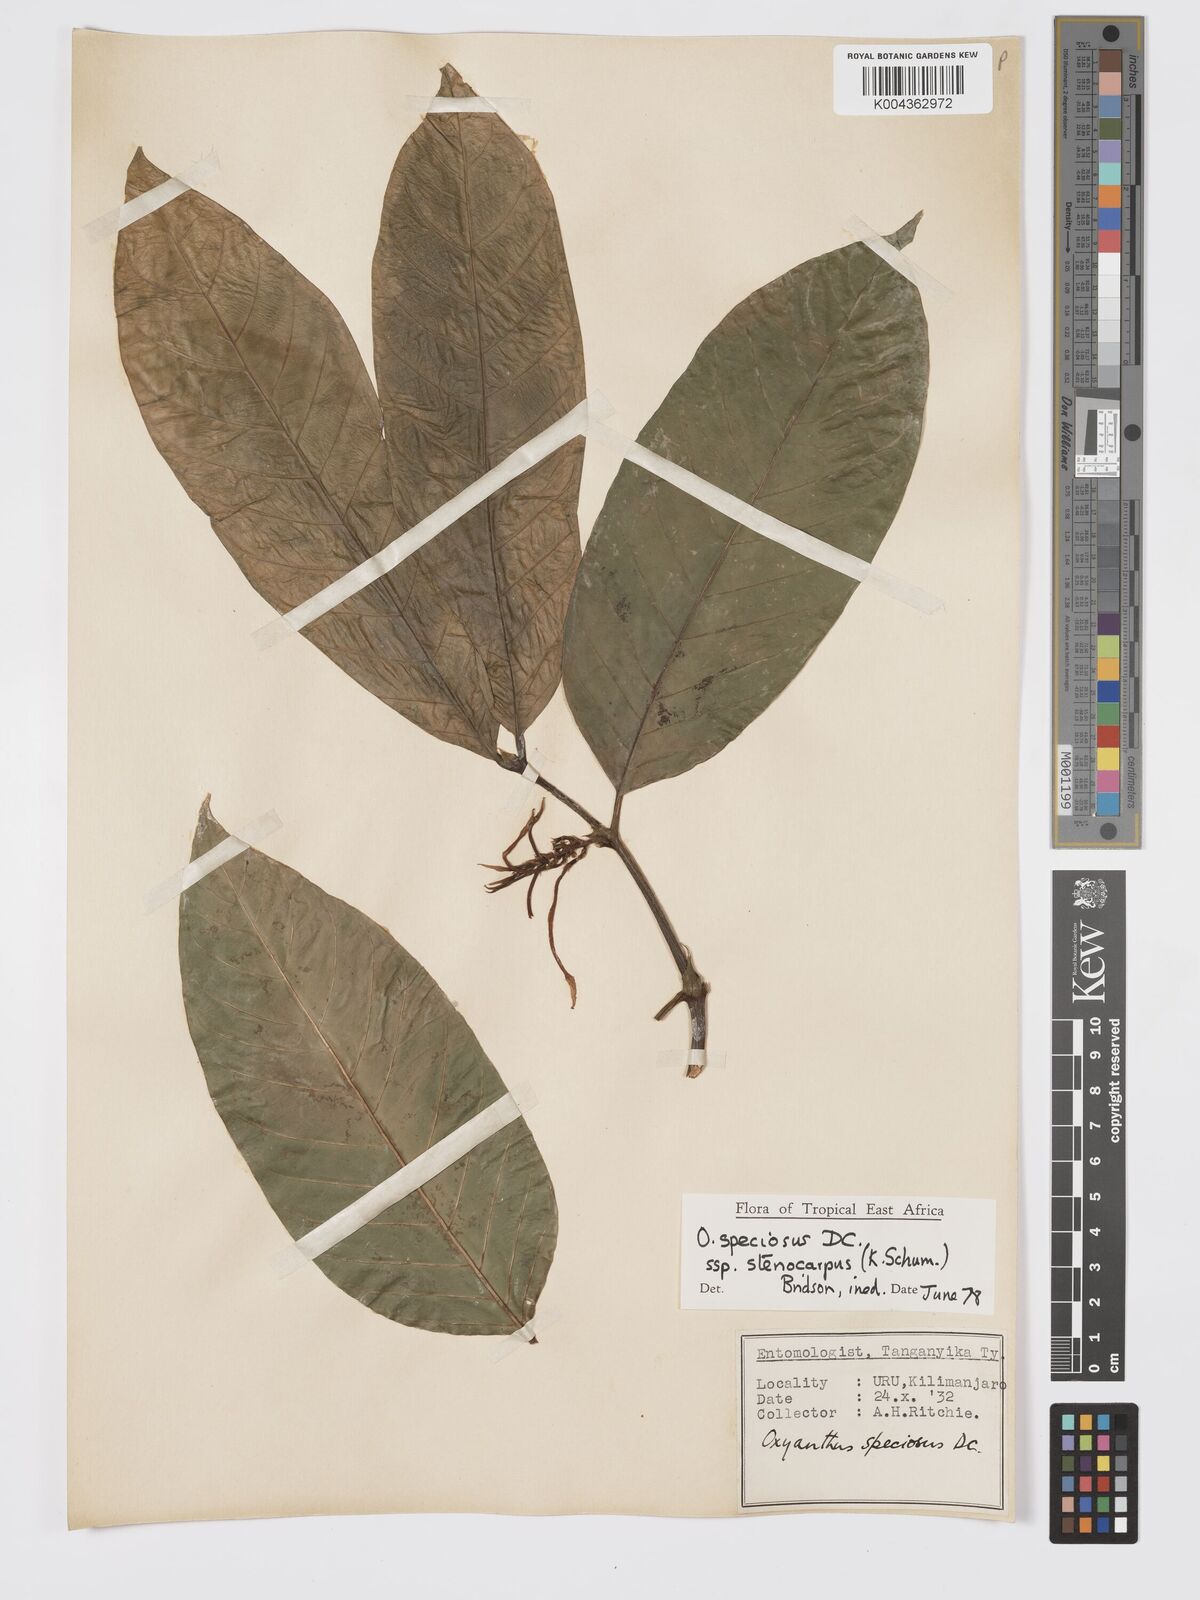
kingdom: Plantae
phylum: Tracheophyta
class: Magnoliopsida
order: Gentianales
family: Rubiaceae
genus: Oxyanthus
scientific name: Oxyanthus speciosus
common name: Whipstick loquat
